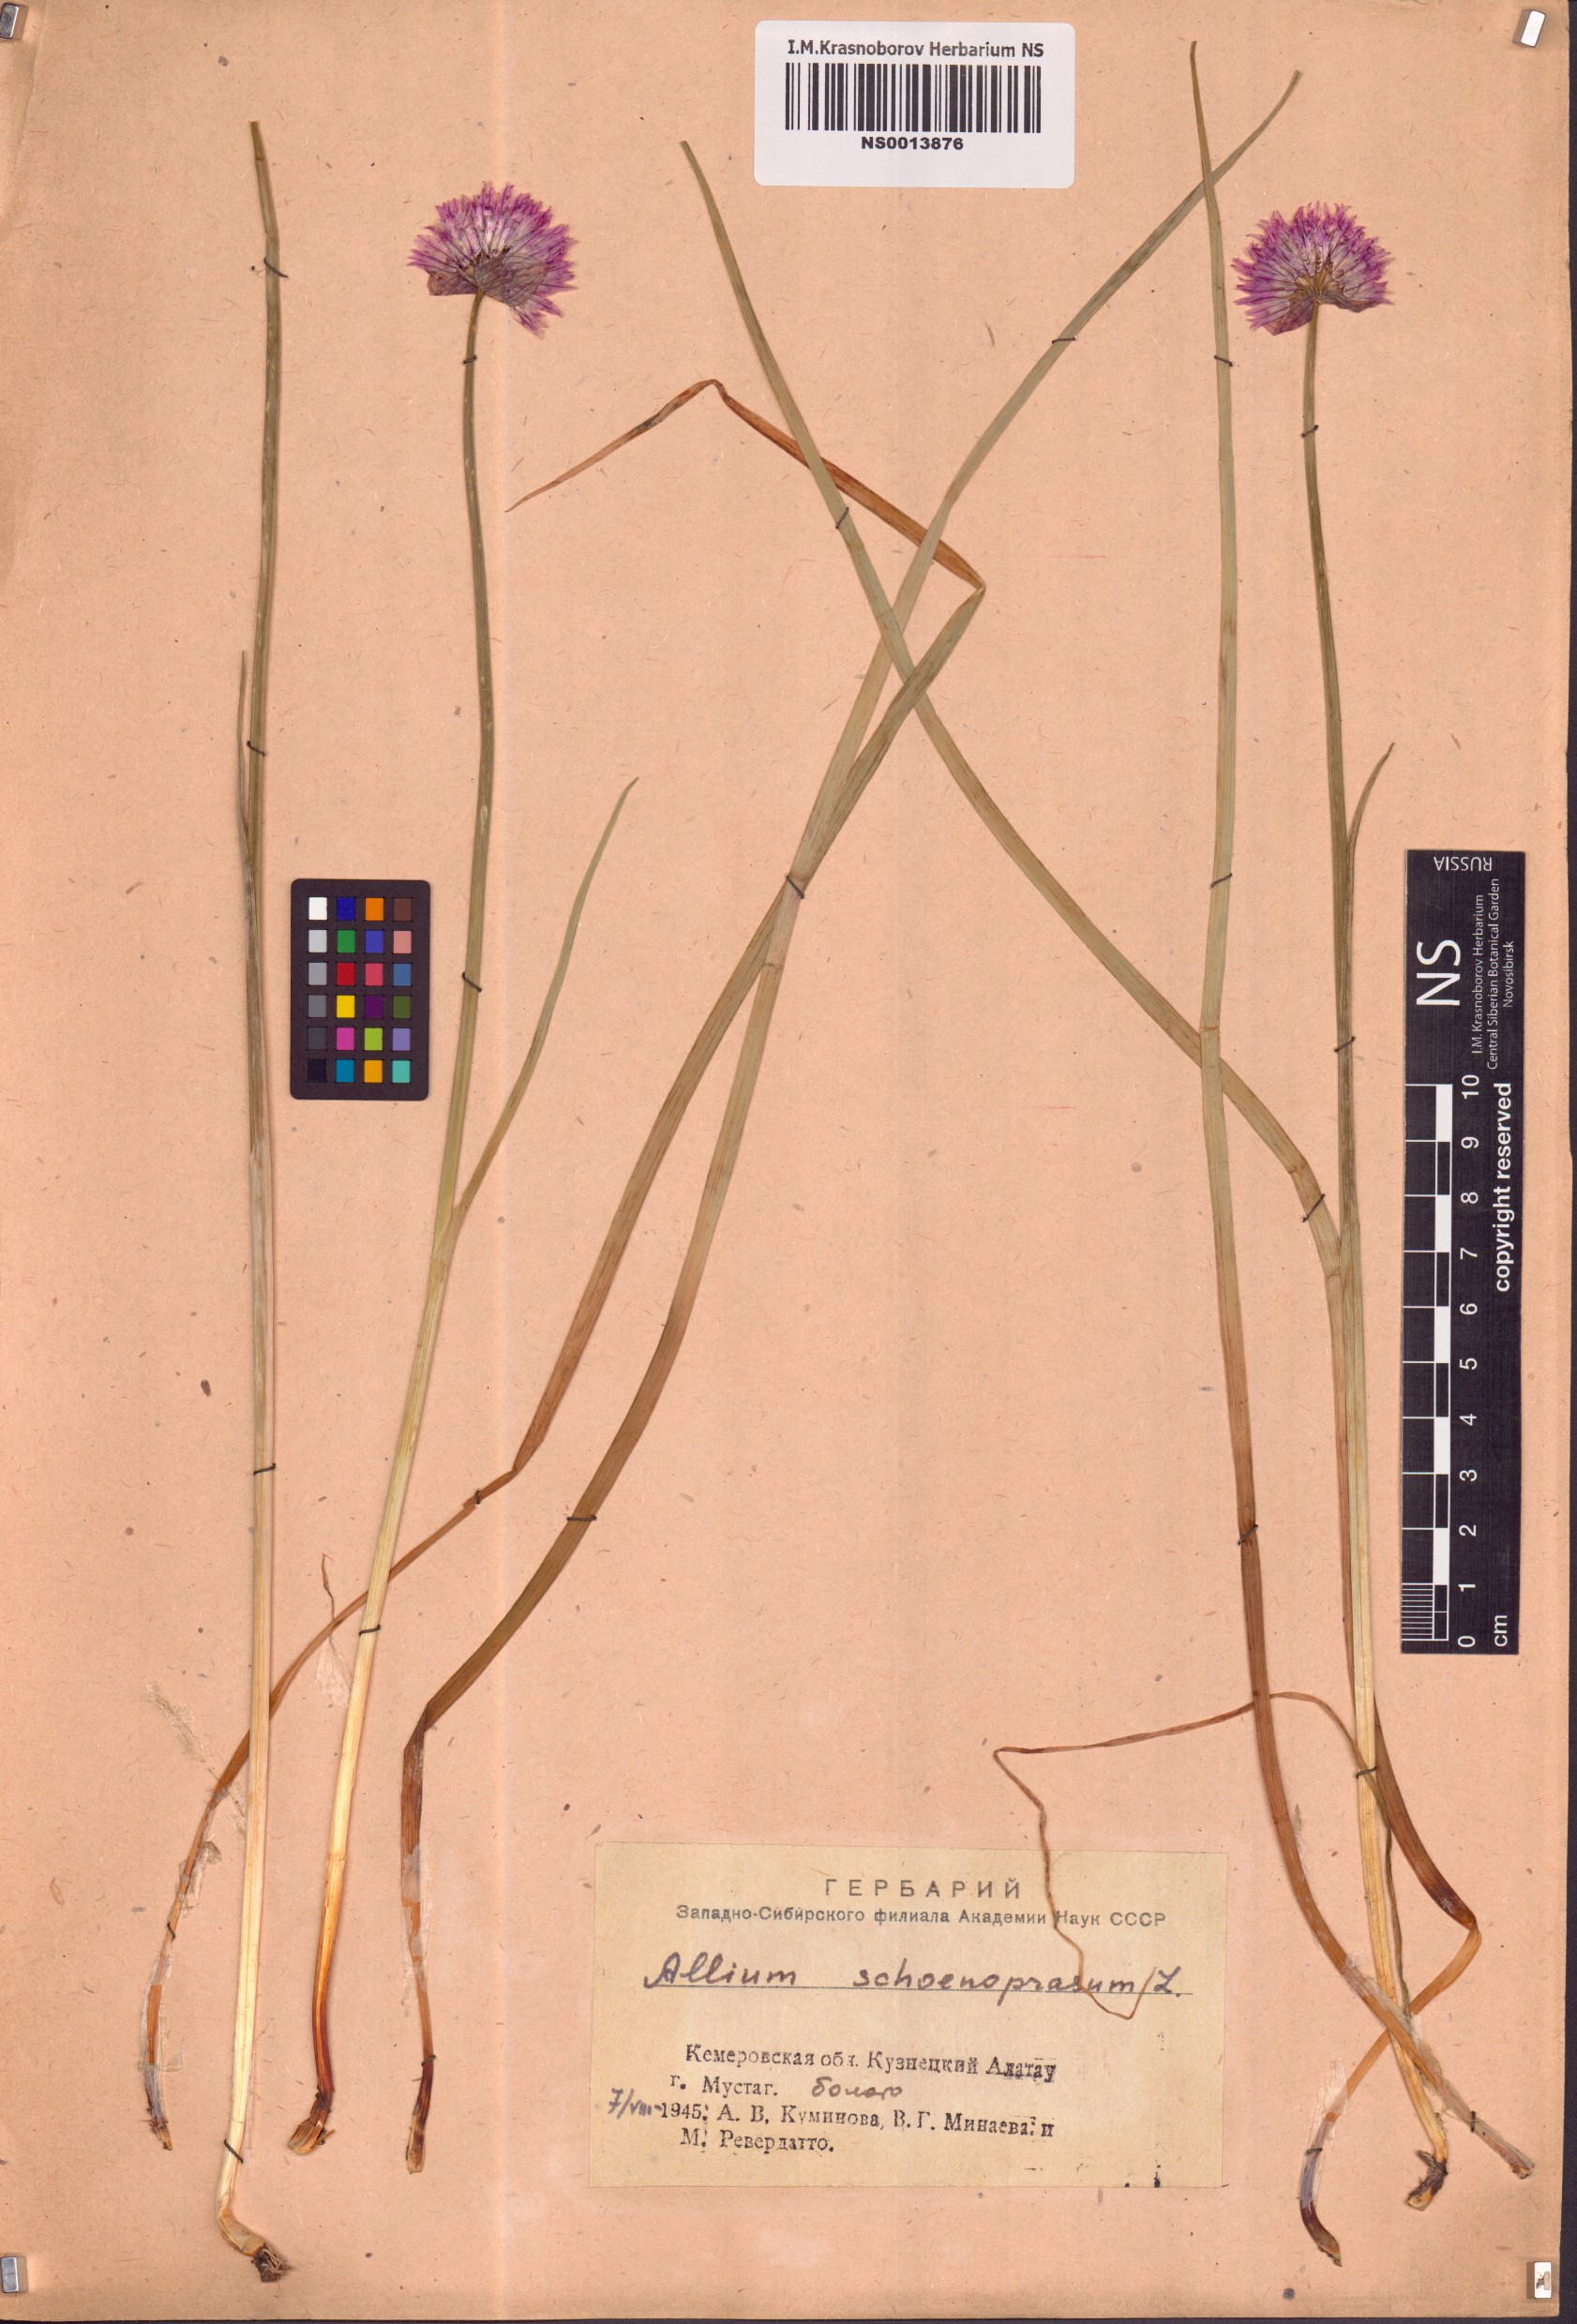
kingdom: Plantae
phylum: Tracheophyta
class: Liliopsida
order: Asparagales
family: Amaryllidaceae
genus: Allium
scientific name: Allium schoenoprasum
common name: Chives
